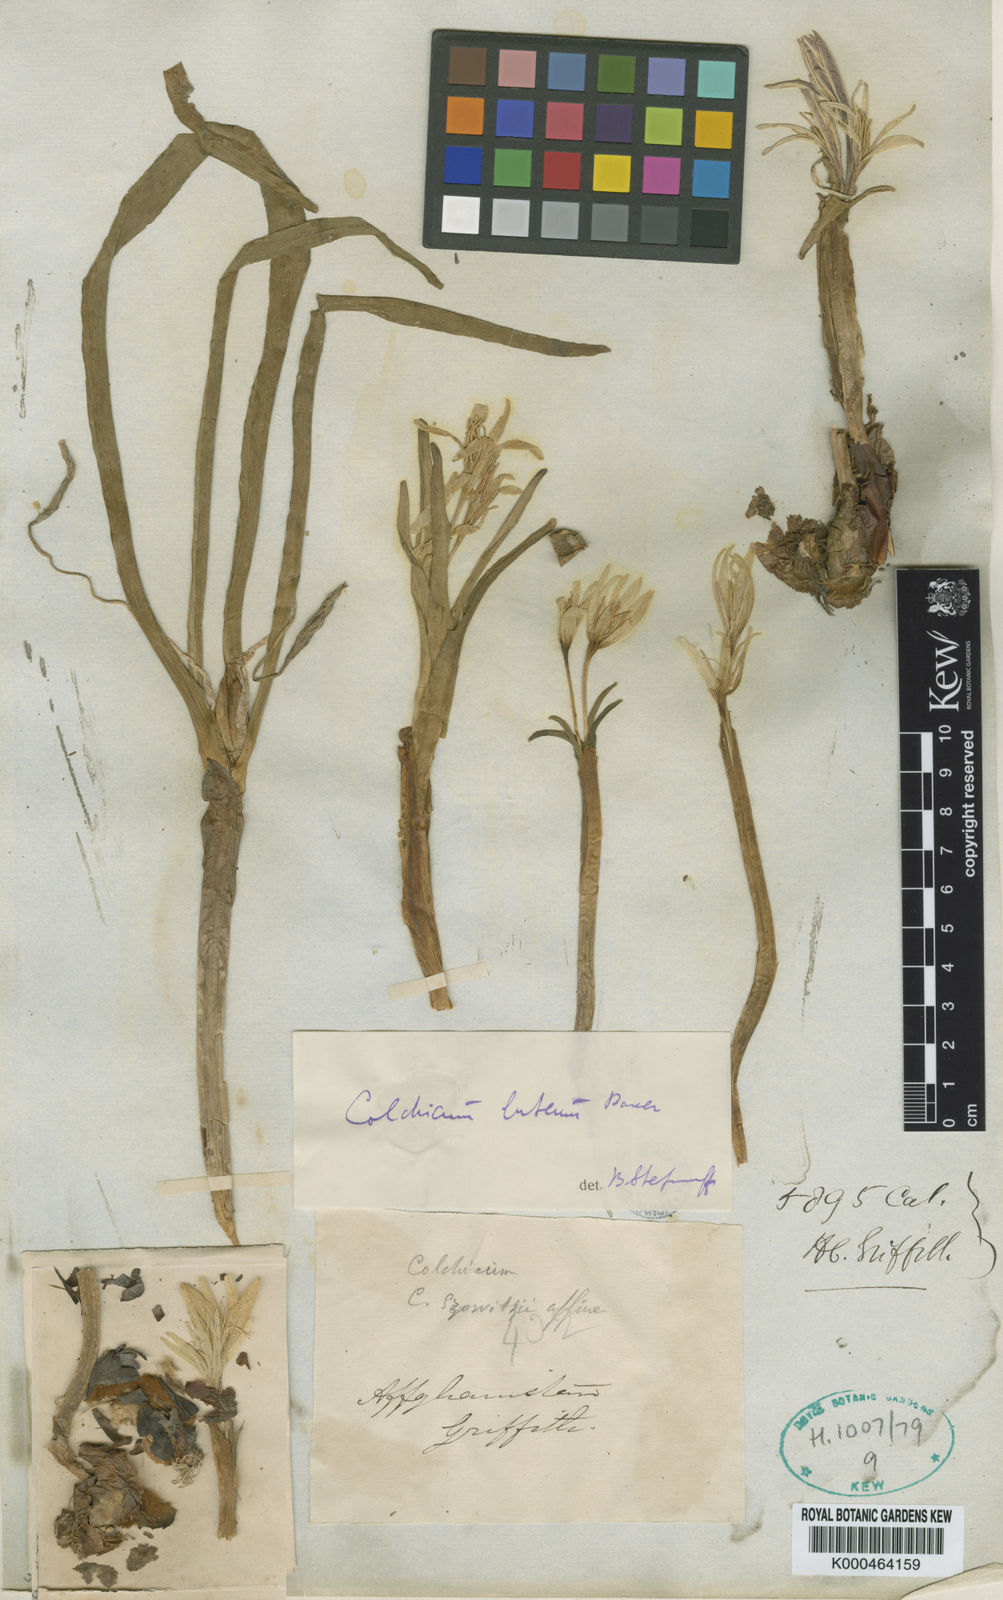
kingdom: Plantae
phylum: Tracheophyta
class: Liliopsida
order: Liliales
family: Colchicaceae
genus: Colchicum
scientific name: Colchicum szovitsii
